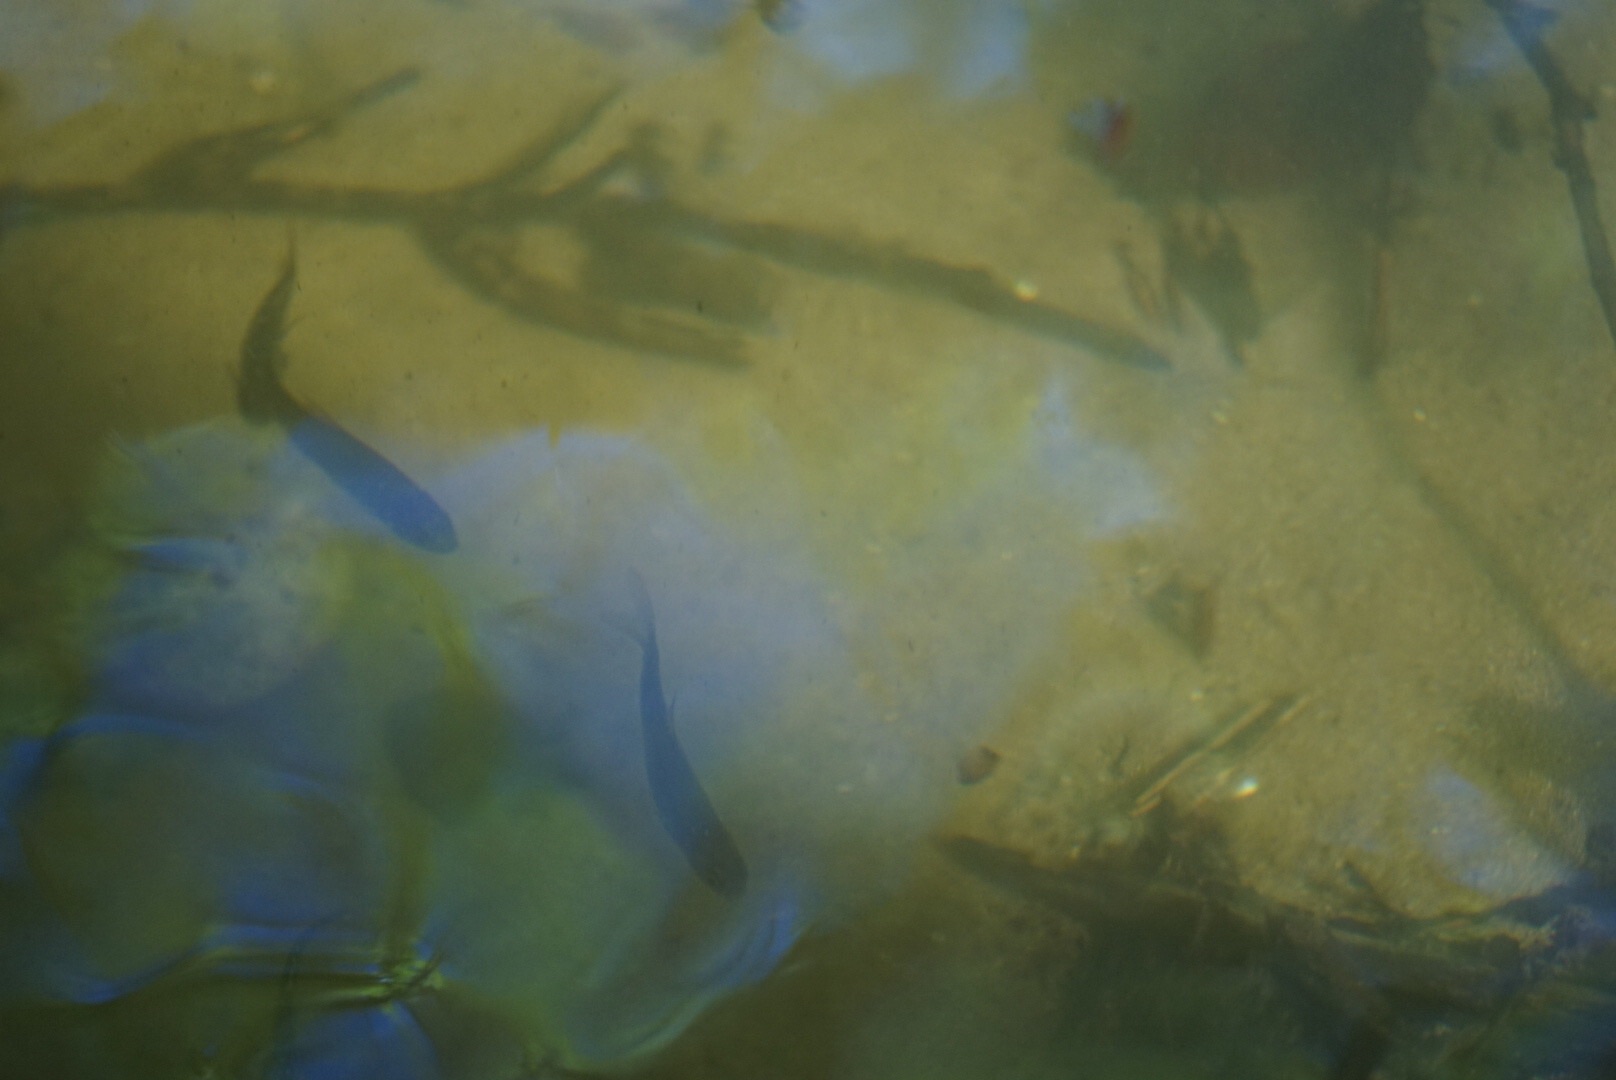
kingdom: Animalia
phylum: Chordata
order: Cypriniformes
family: Cyprinidae
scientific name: Cyprinidae
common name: Karpefamilien
